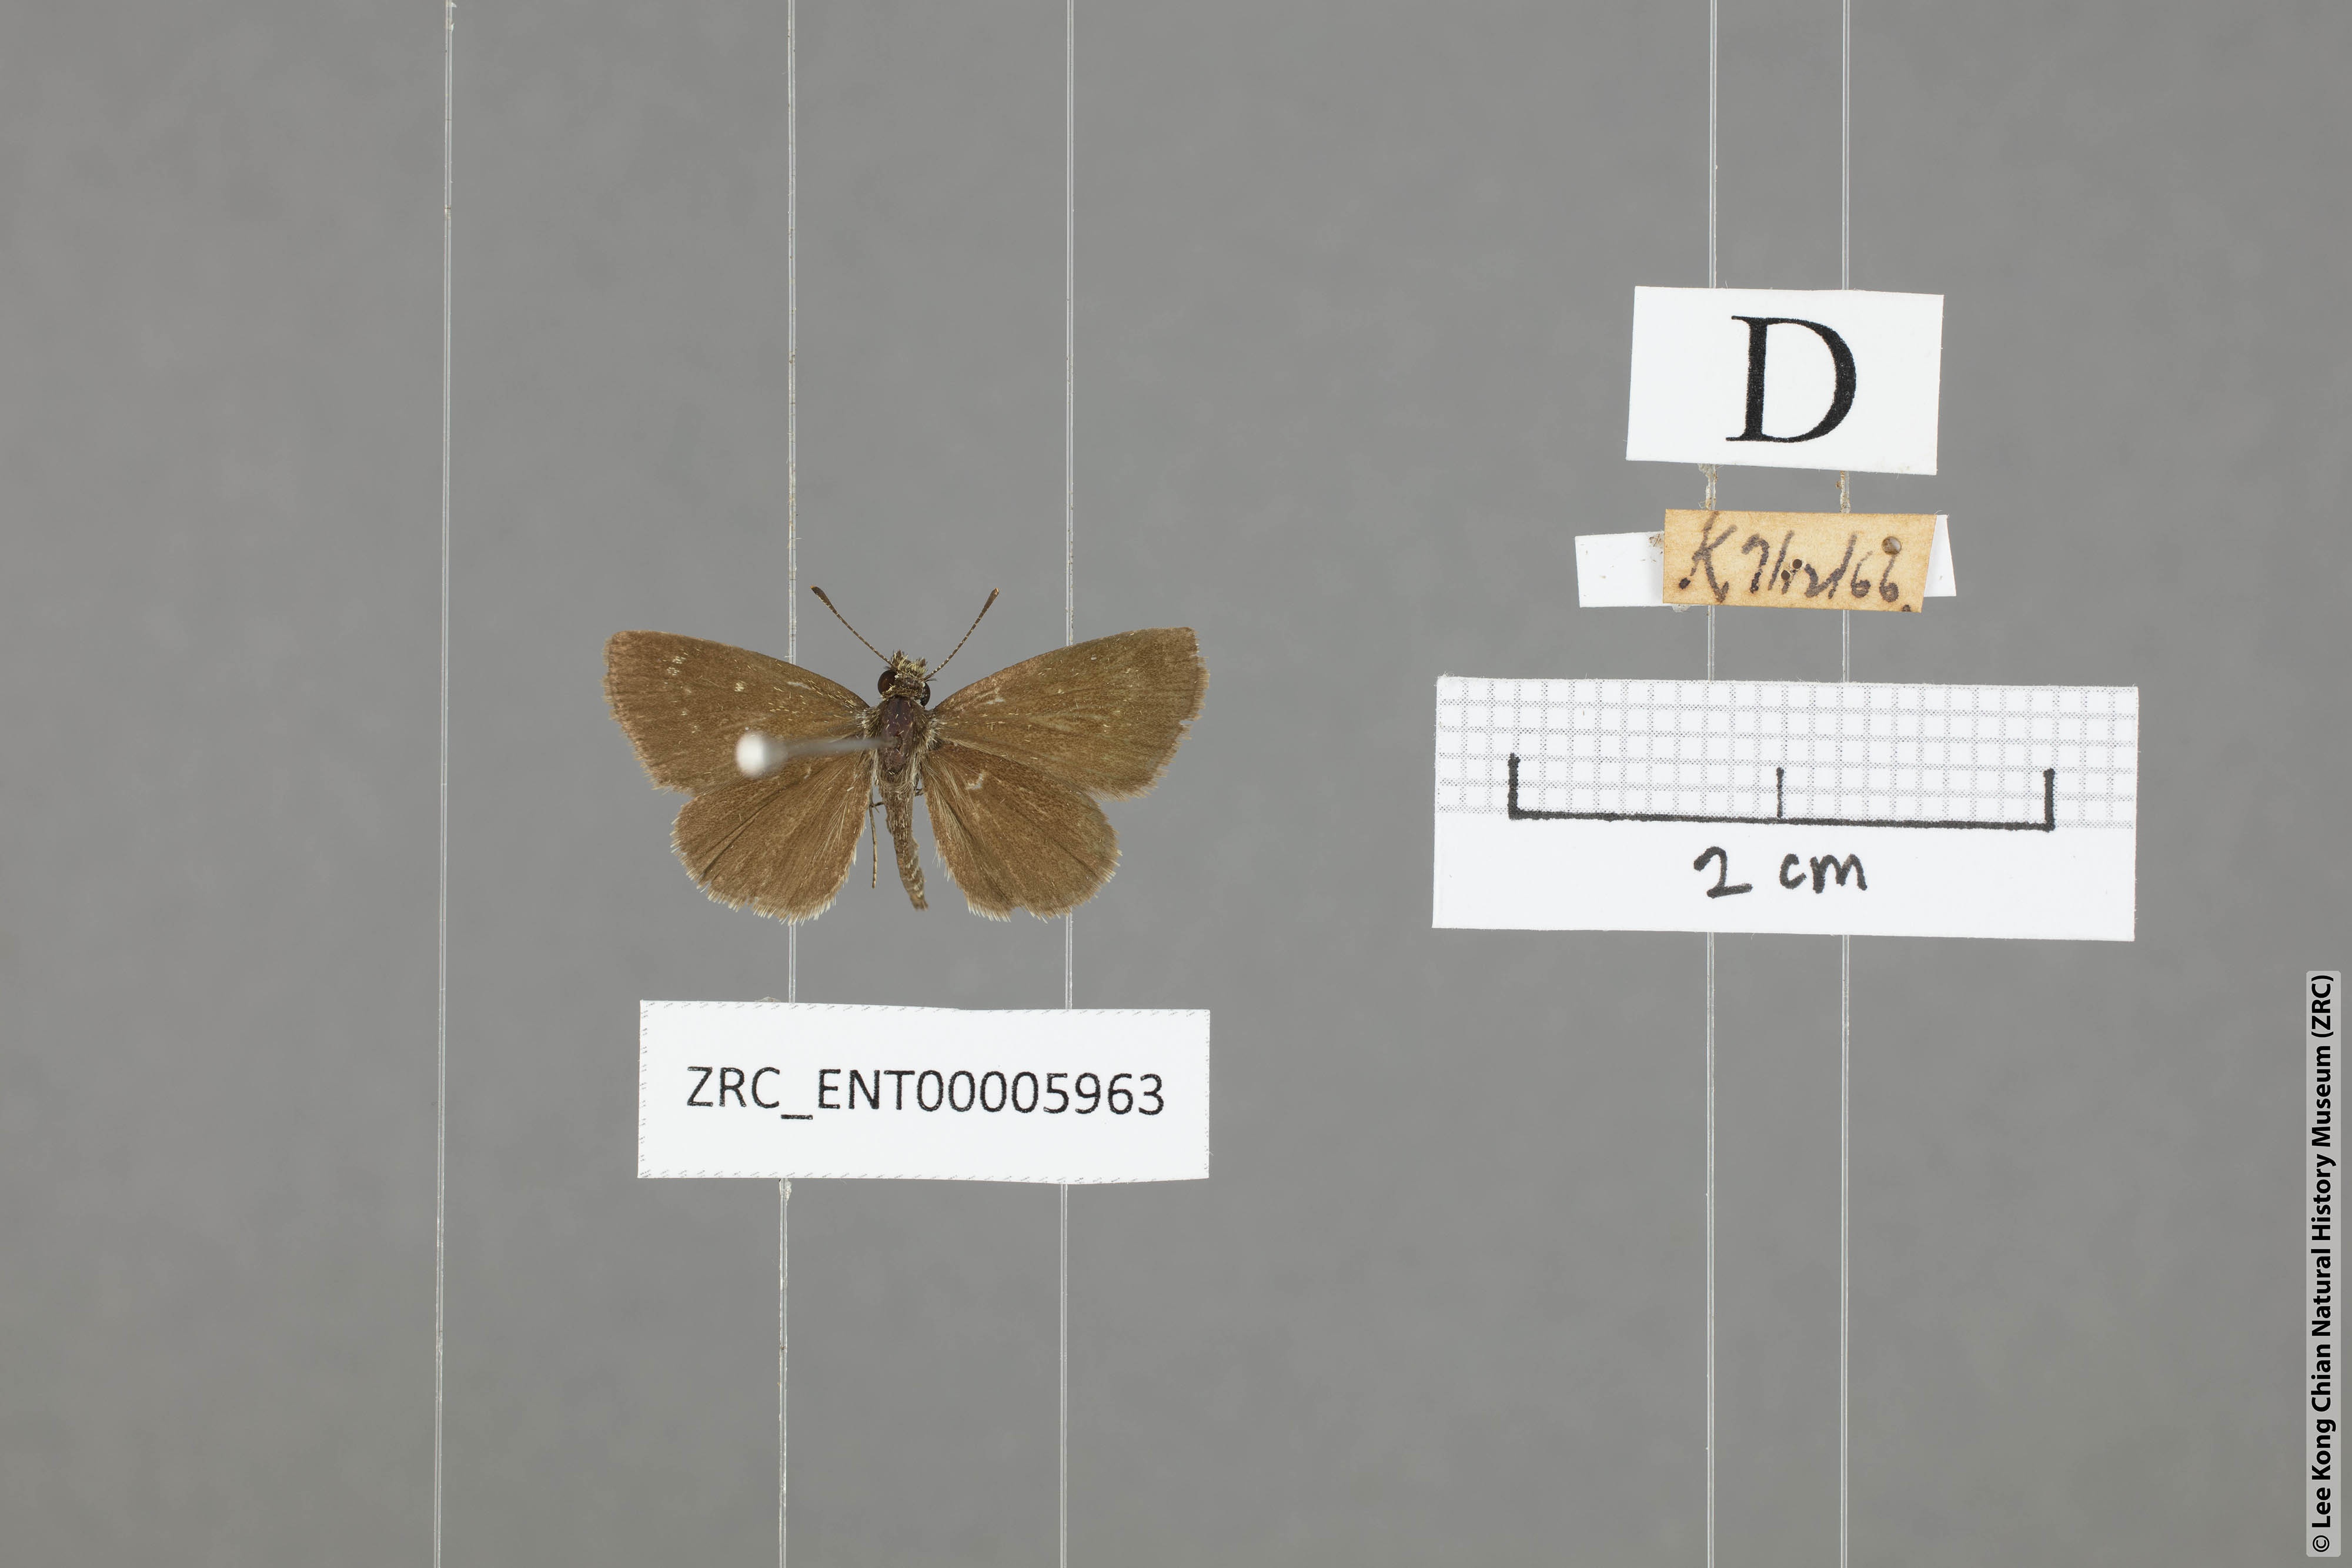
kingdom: Animalia
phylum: Arthropoda
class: Insecta
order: Lepidoptera
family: Hesperiidae
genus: Aeromachus
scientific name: Aeromachus pygmaeus
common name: Pygmy scrub hopper
